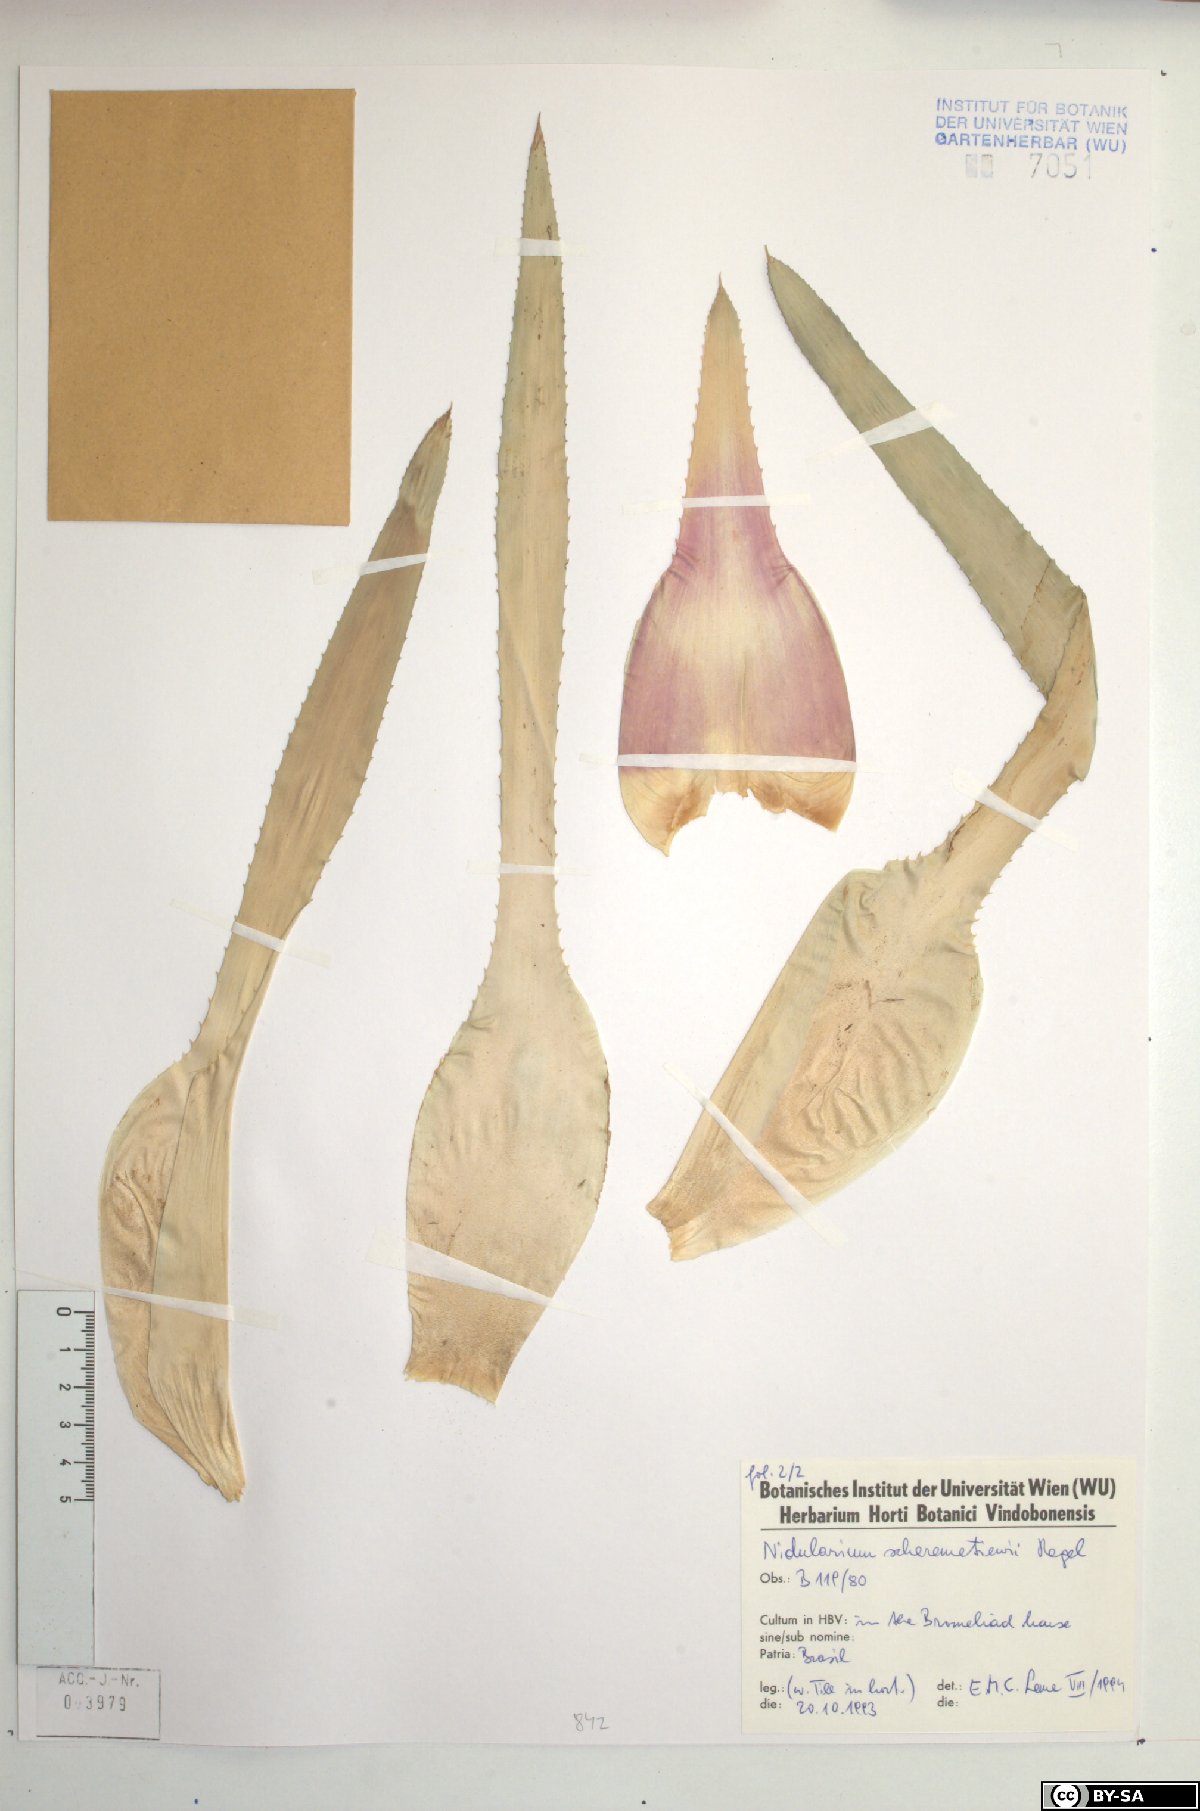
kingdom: Plantae
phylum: Tracheophyta
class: Liliopsida
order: Poales
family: Bromeliaceae
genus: Nidularium
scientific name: Nidularium scheremetiewii
